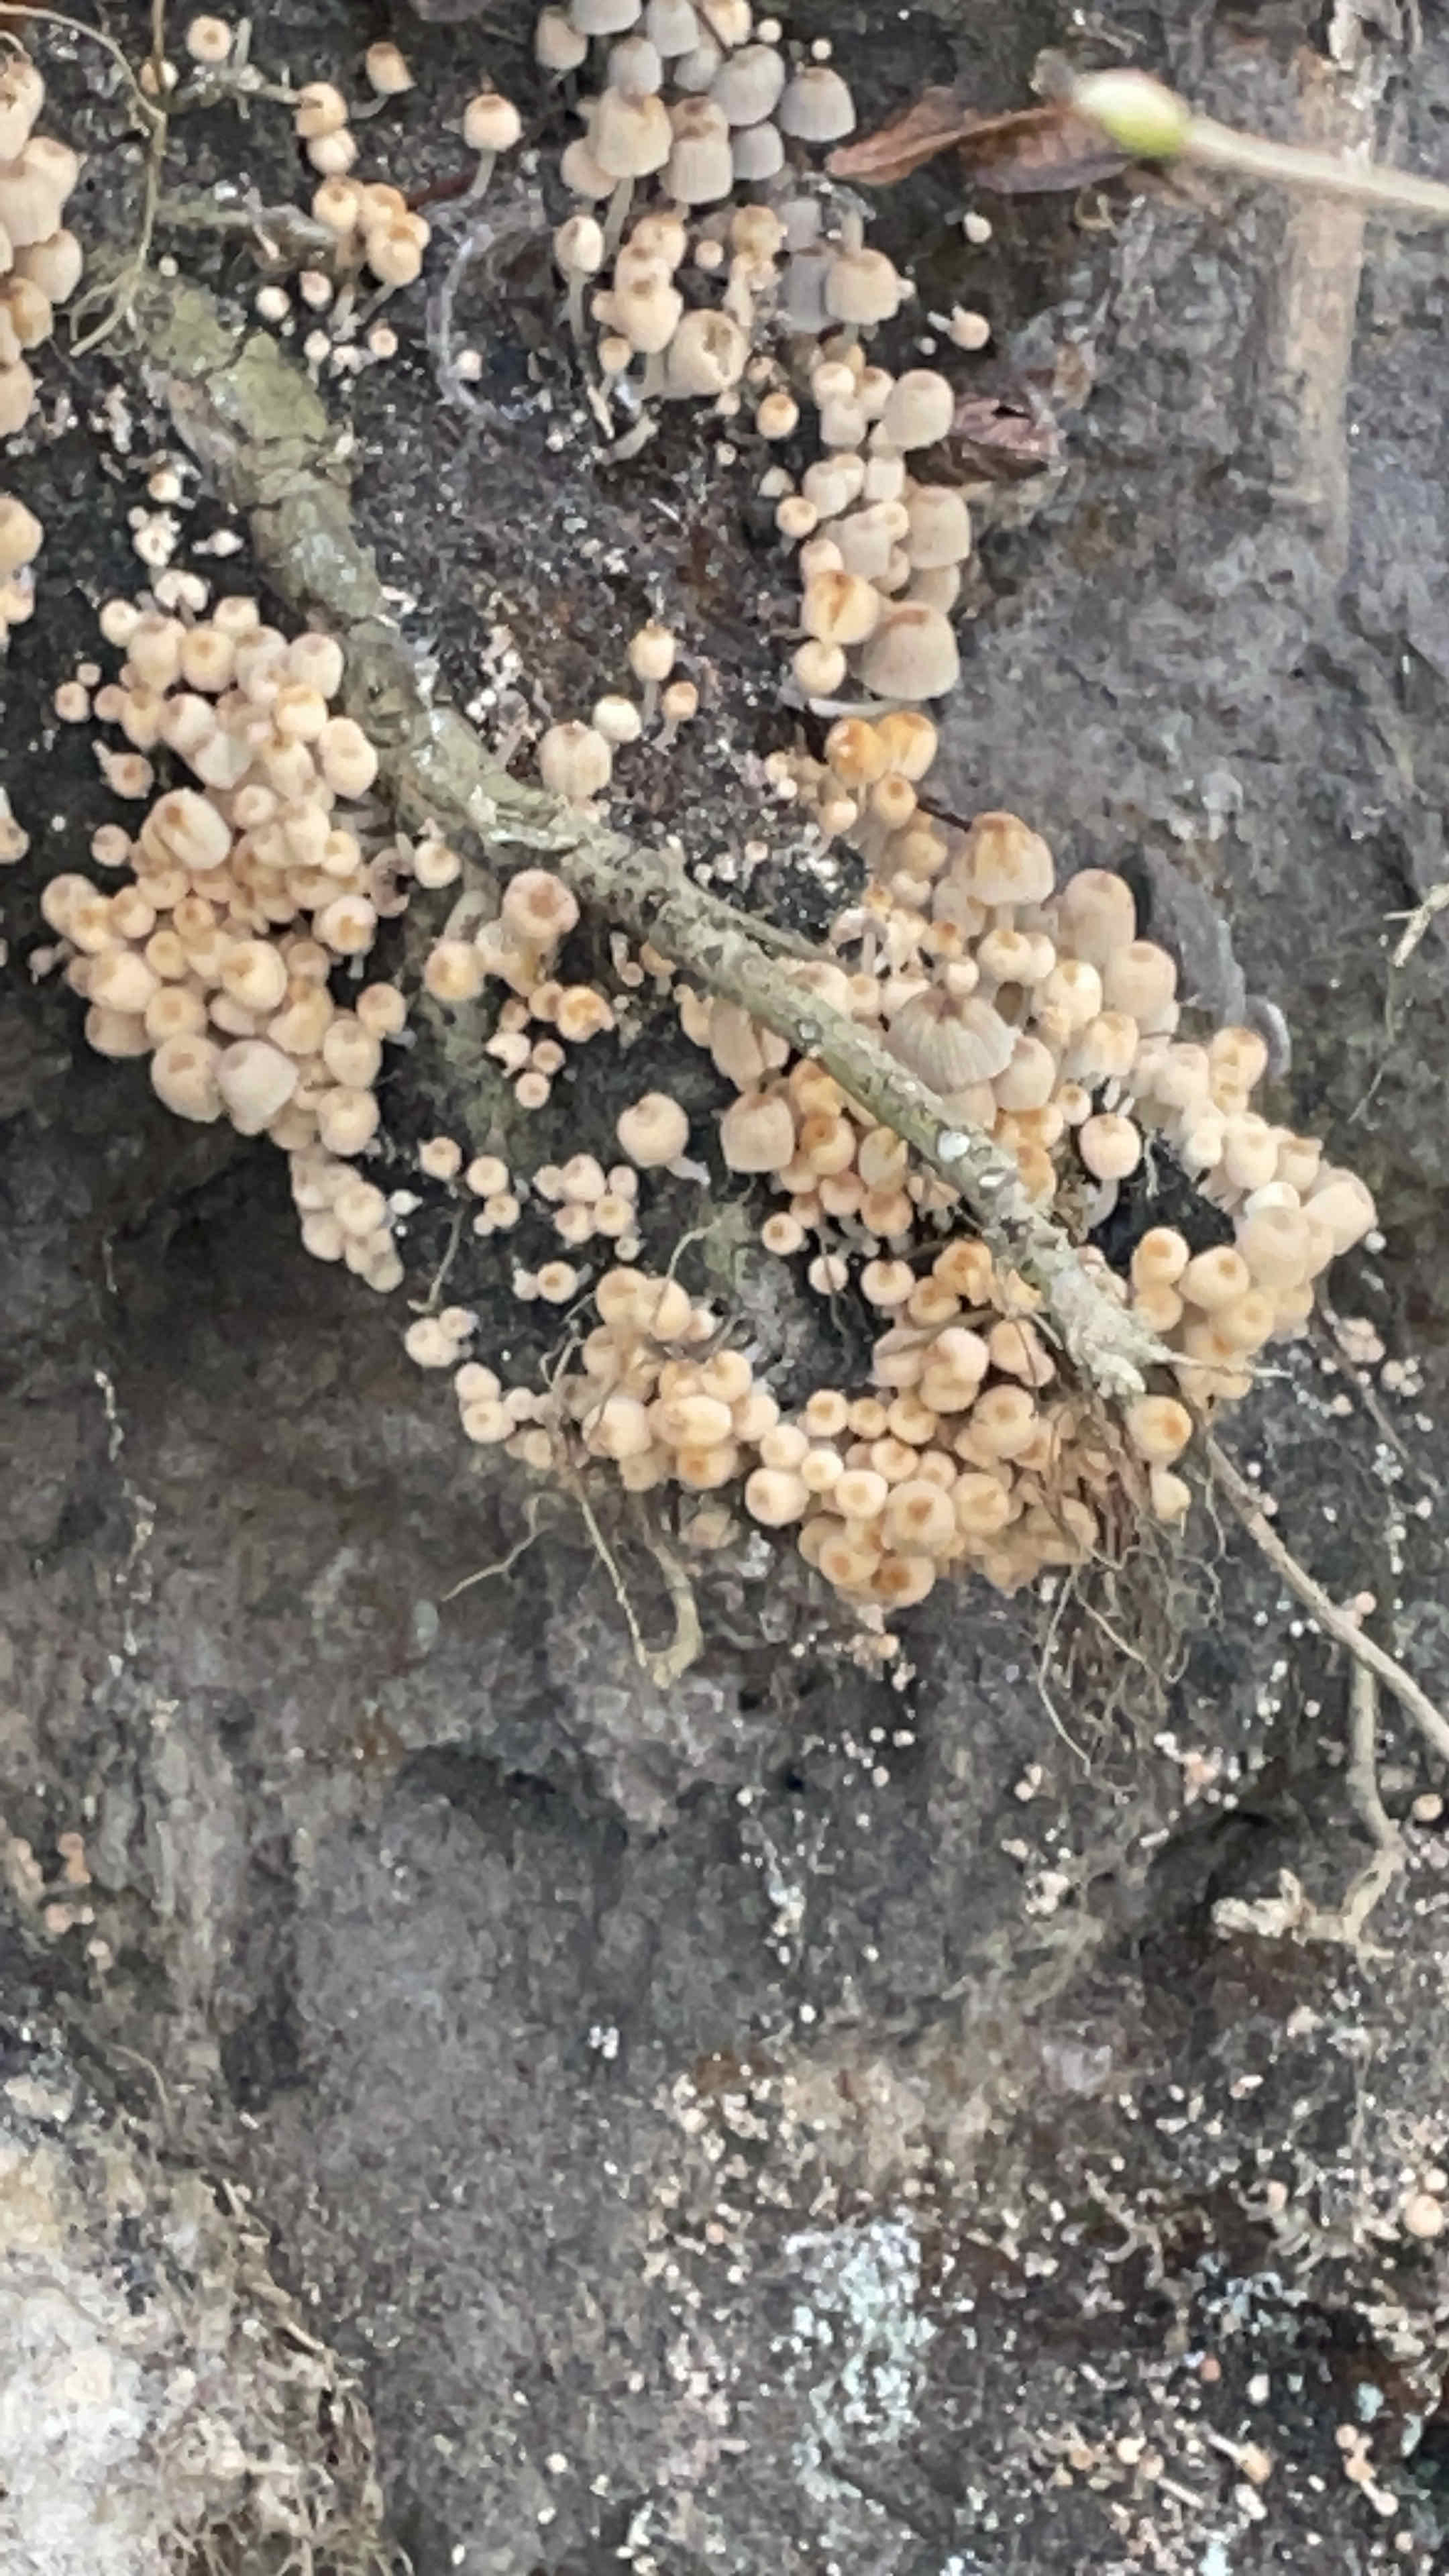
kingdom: Fungi
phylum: Basidiomycota
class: Agaricomycetes
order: Agaricales
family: Psathyrellaceae
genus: Coprinellus
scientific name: Coprinellus disseminatus
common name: bredsået blækhat
